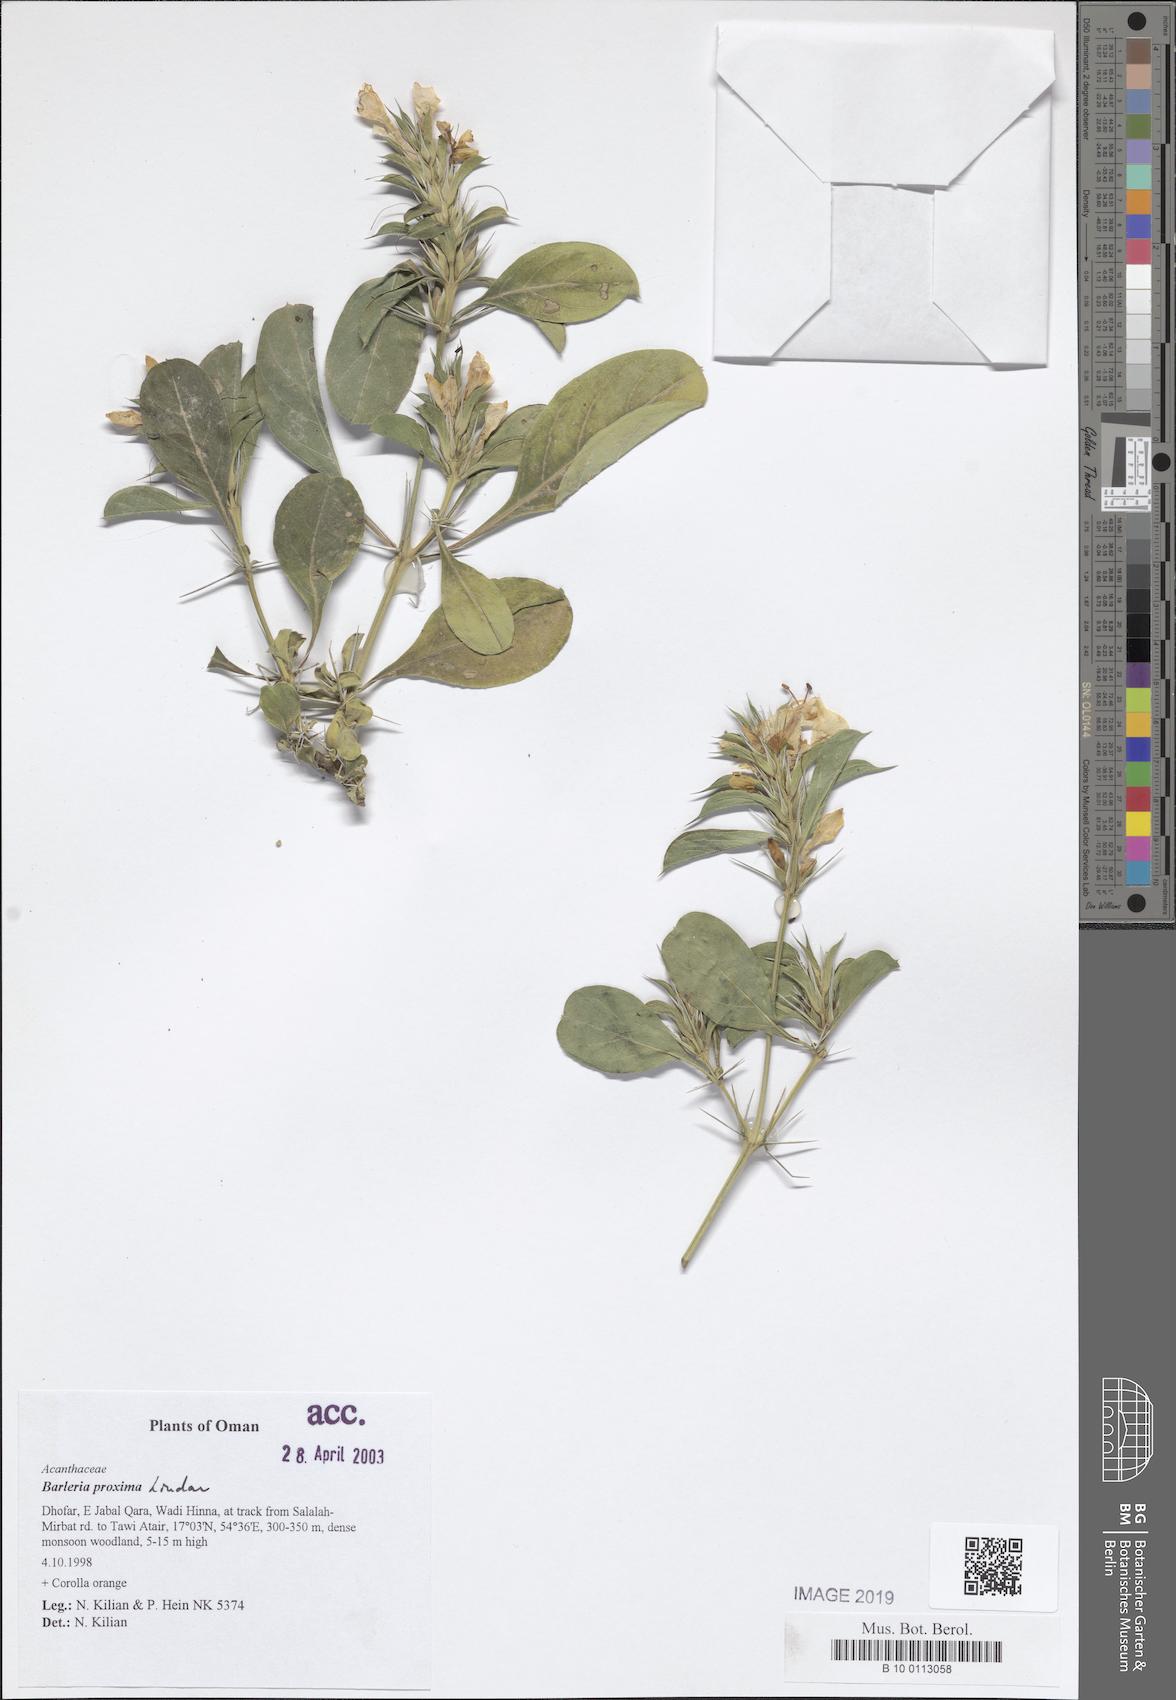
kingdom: Plantae
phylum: Tracheophyta
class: Magnoliopsida
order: Lamiales
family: Acanthaceae
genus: Barleria
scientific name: Barleria proxima
